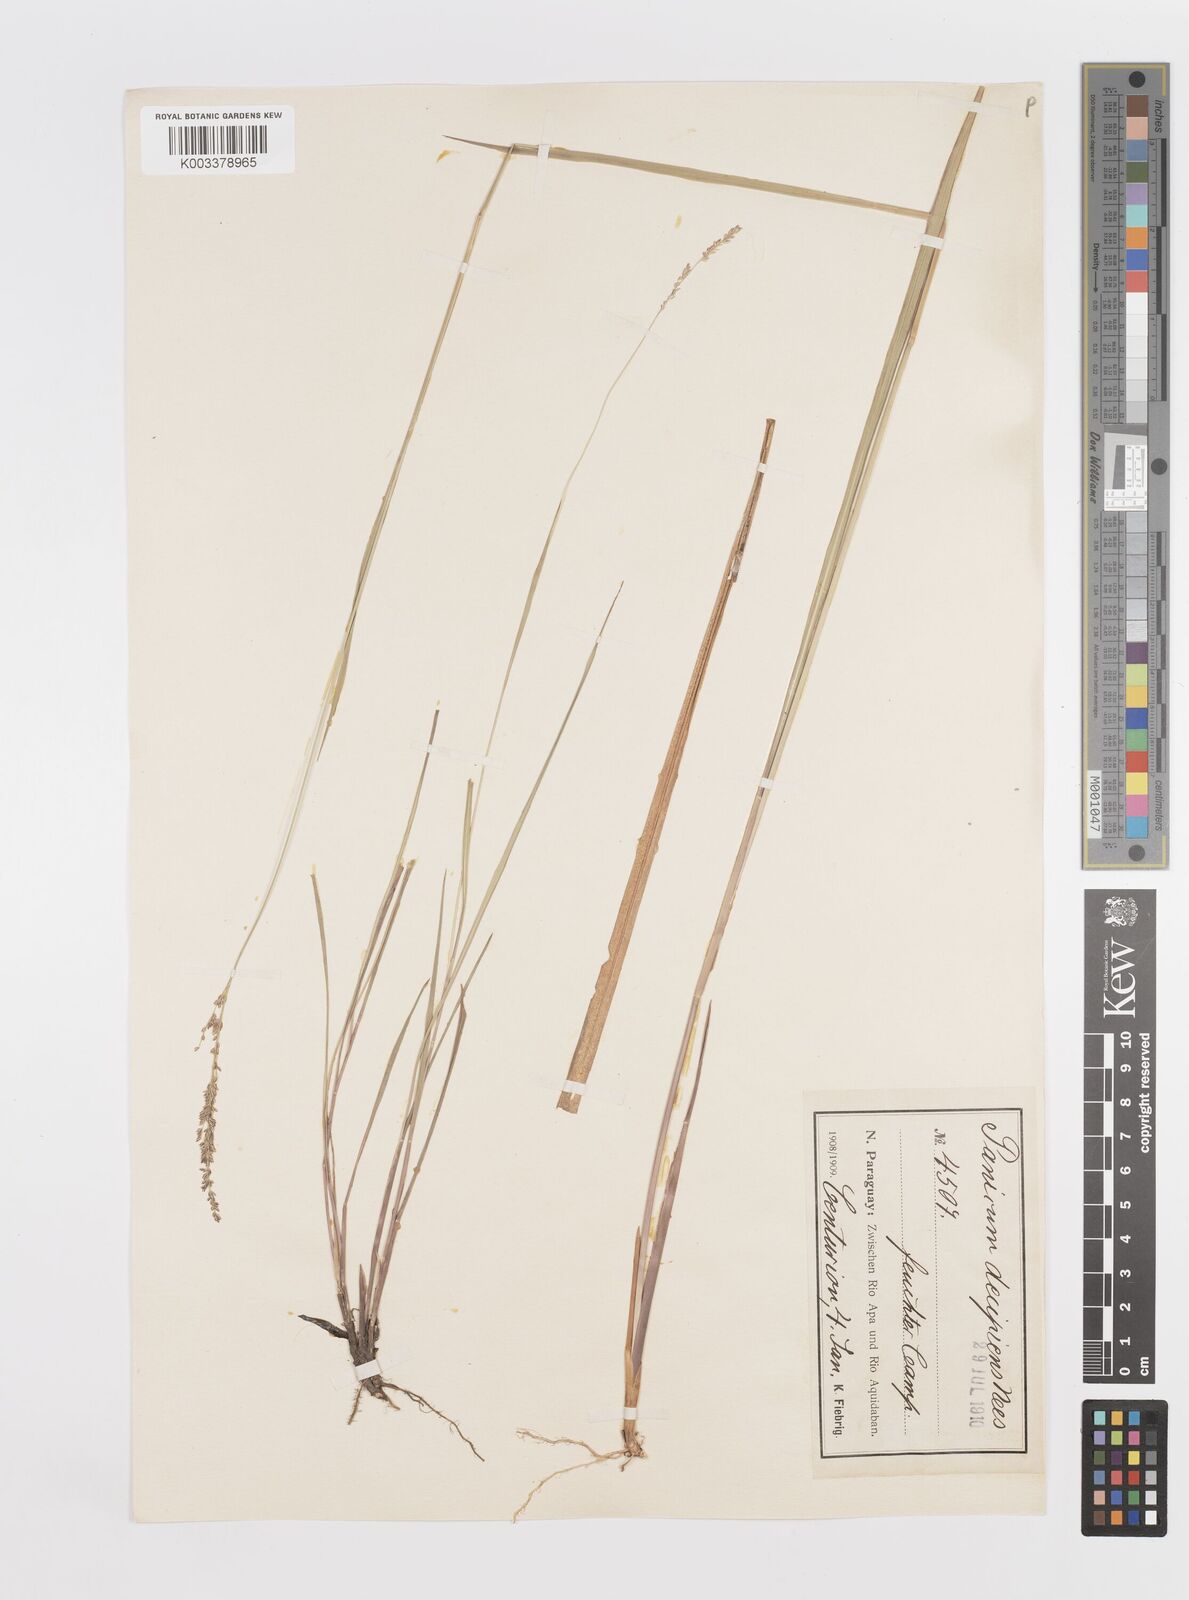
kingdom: Plantae
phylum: Tracheophyta
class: Liliopsida
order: Poales
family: Poaceae
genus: Steinchisma
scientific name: Steinchisma decipiens
